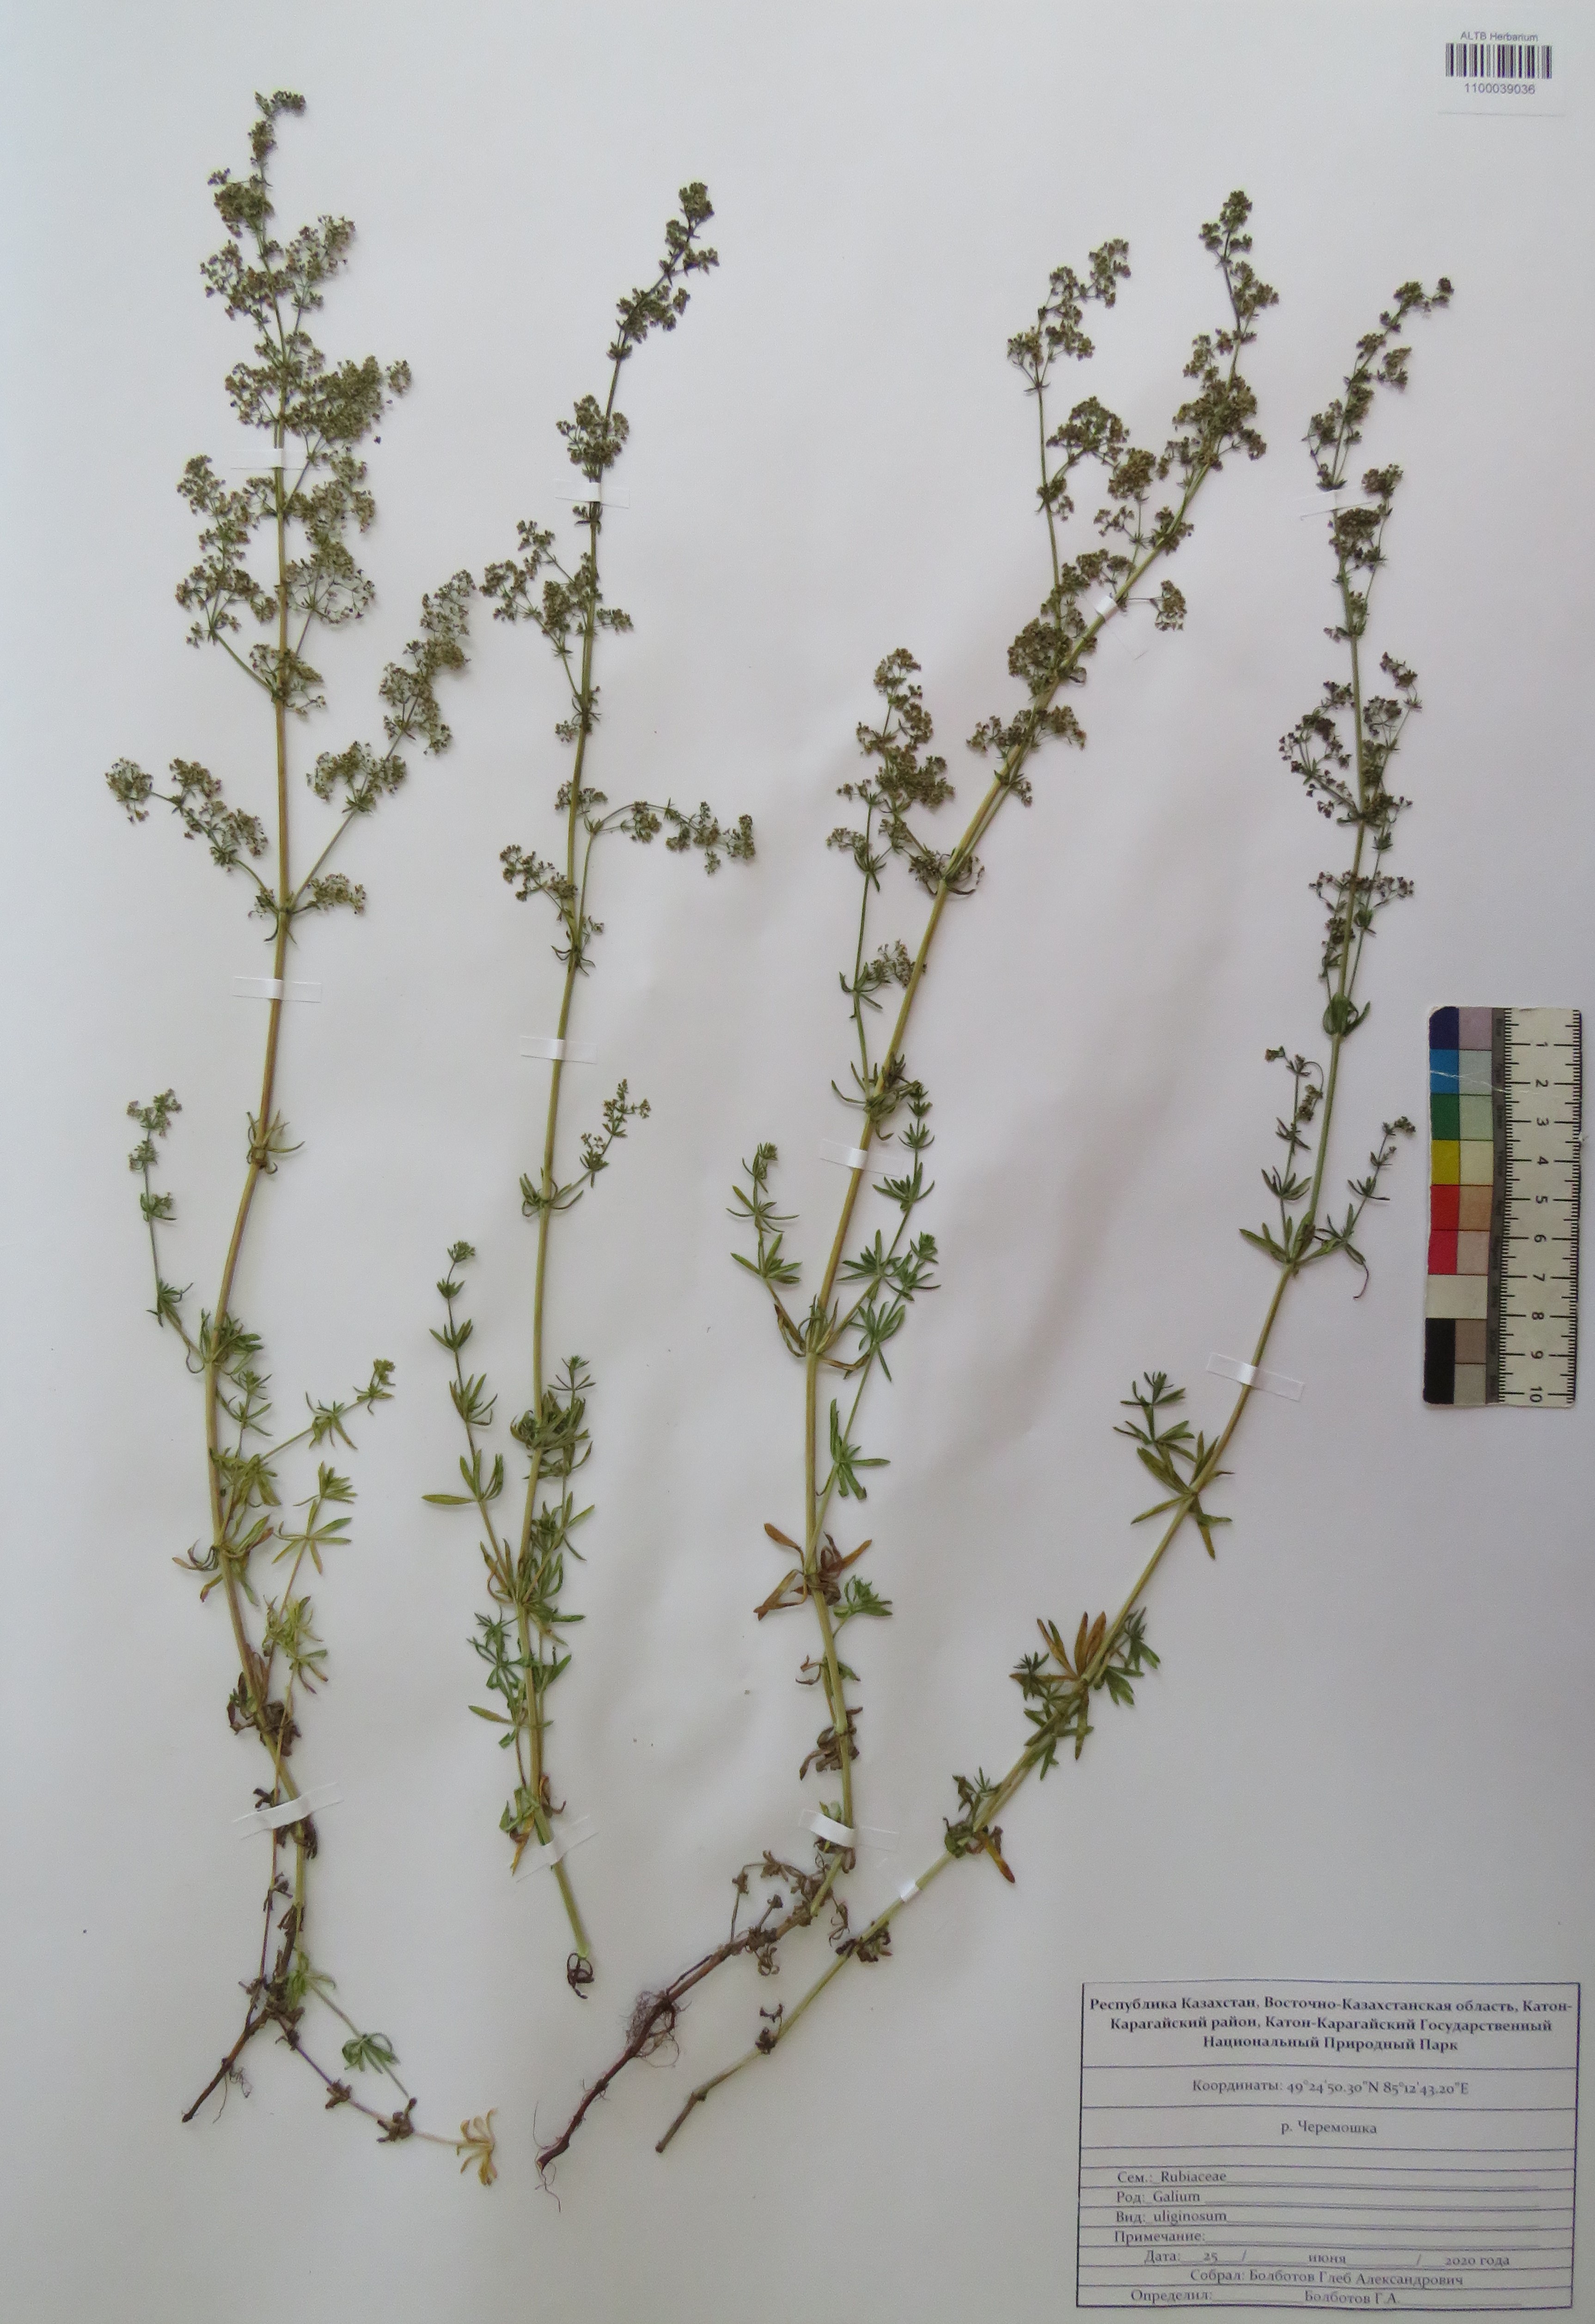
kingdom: Plantae
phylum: Tracheophyta
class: Magnoliopsida
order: Gentianales
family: Rubiaceae
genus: Galium
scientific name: Galium uliginosum
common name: Fen bedstraw
